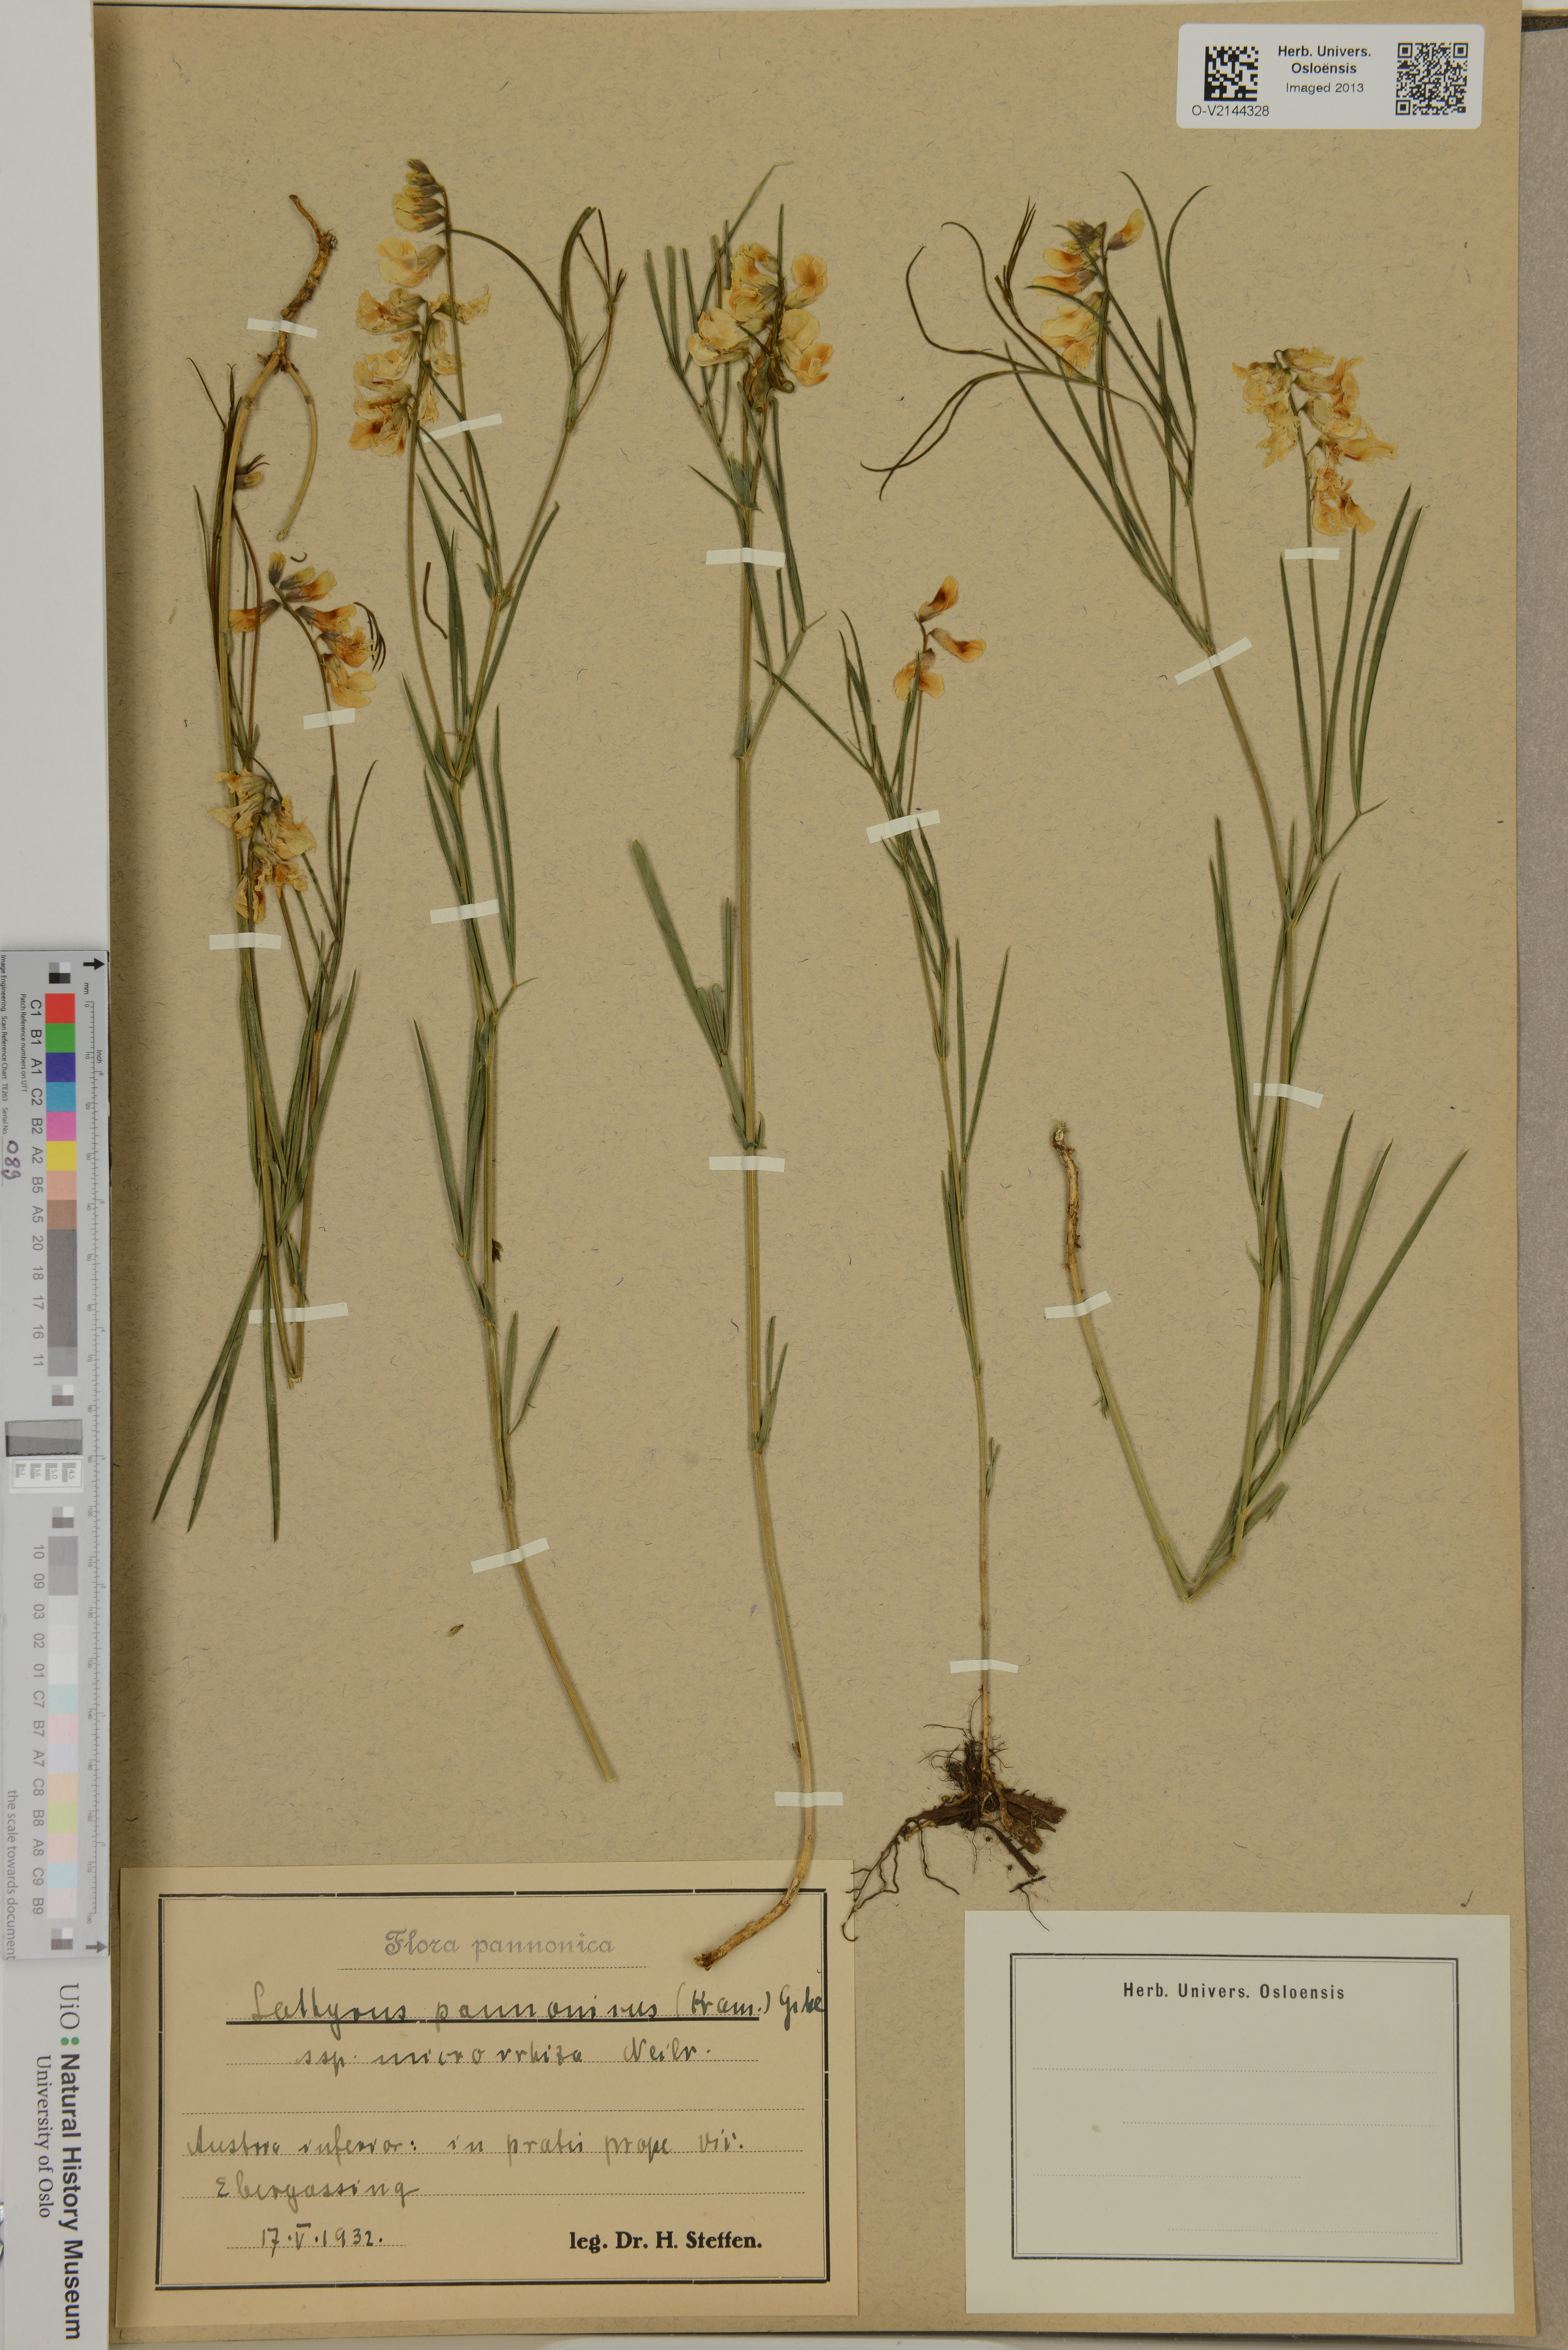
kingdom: Plantae
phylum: Tracheophyta
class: Magnoliopsida
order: Fabales
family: Fabaceae
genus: Lathyrus
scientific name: Lathyrus pannonicus
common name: Pea
